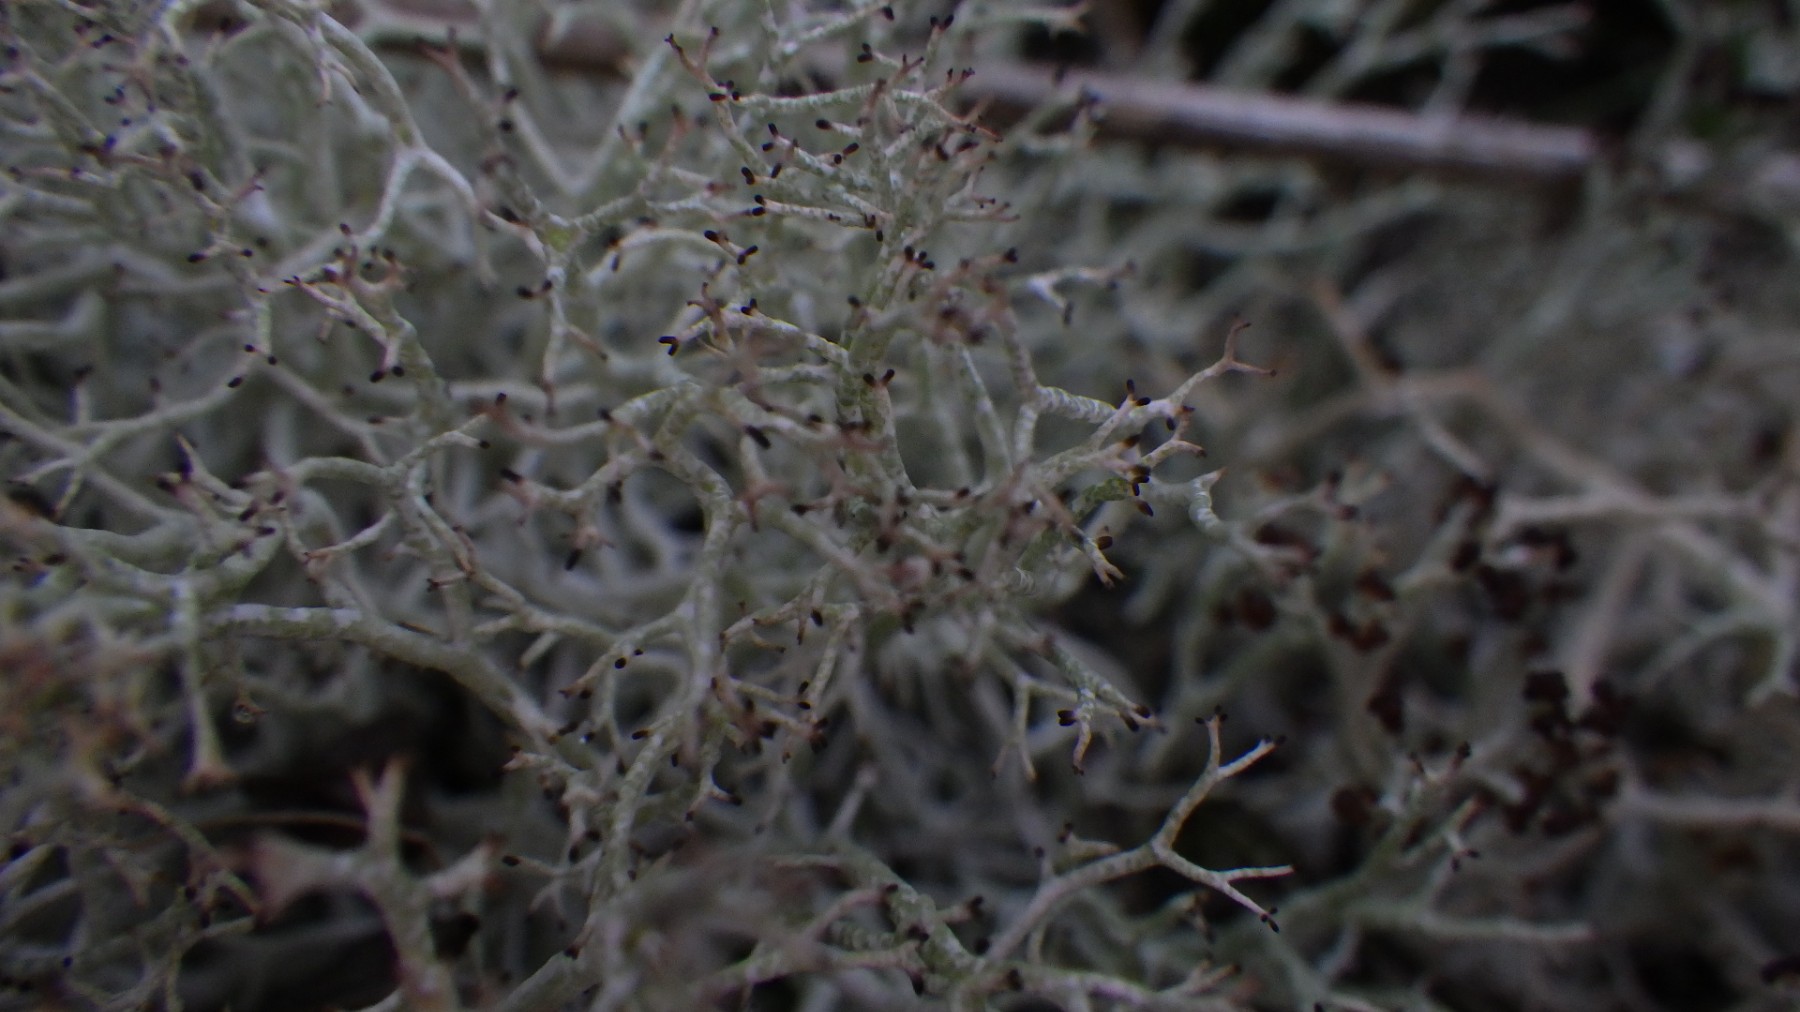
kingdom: Fungi
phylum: Ascomycota
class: Lecanoromycetes
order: Lecanorales
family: Cladoniaceae
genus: Cladonia
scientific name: Cladonia rangiformis
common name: spættet bægerlav
